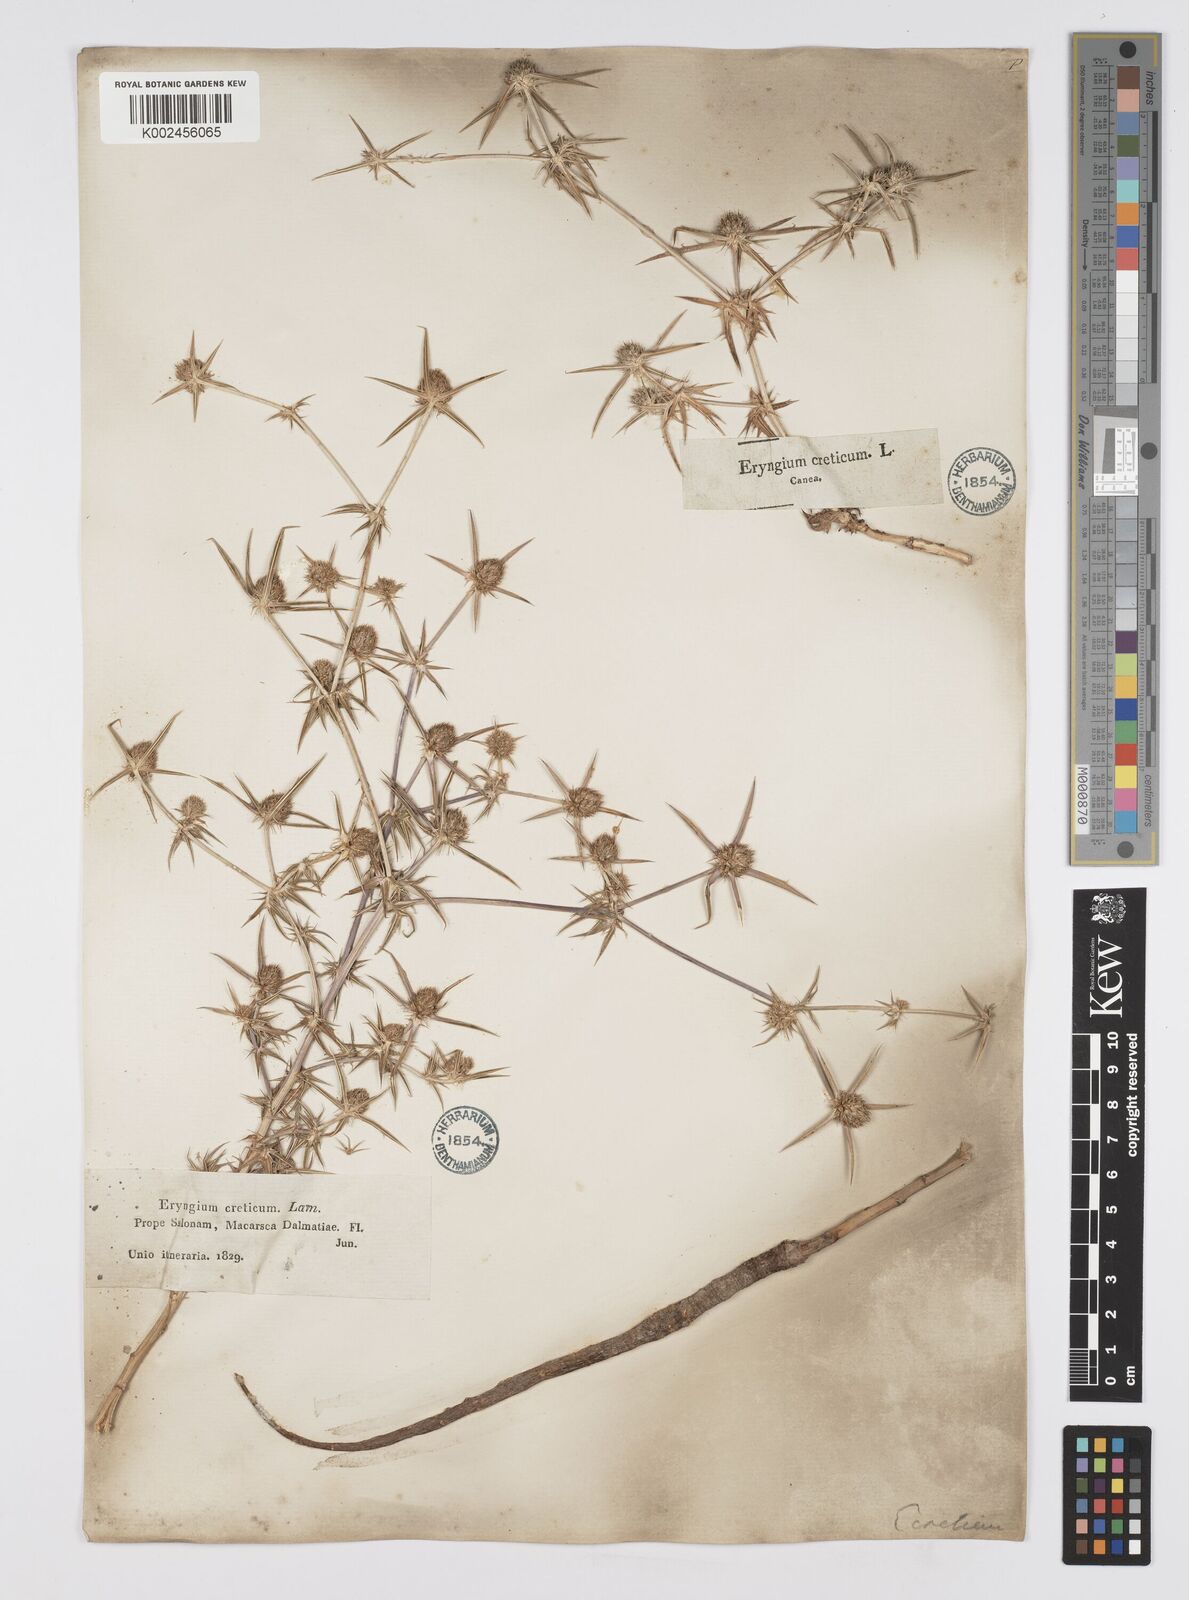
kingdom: Plantae
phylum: Tracheophyta
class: Magnoliopsida
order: Apiales
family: Apiaceae
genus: Eryngium
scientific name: Eryngium creticum
